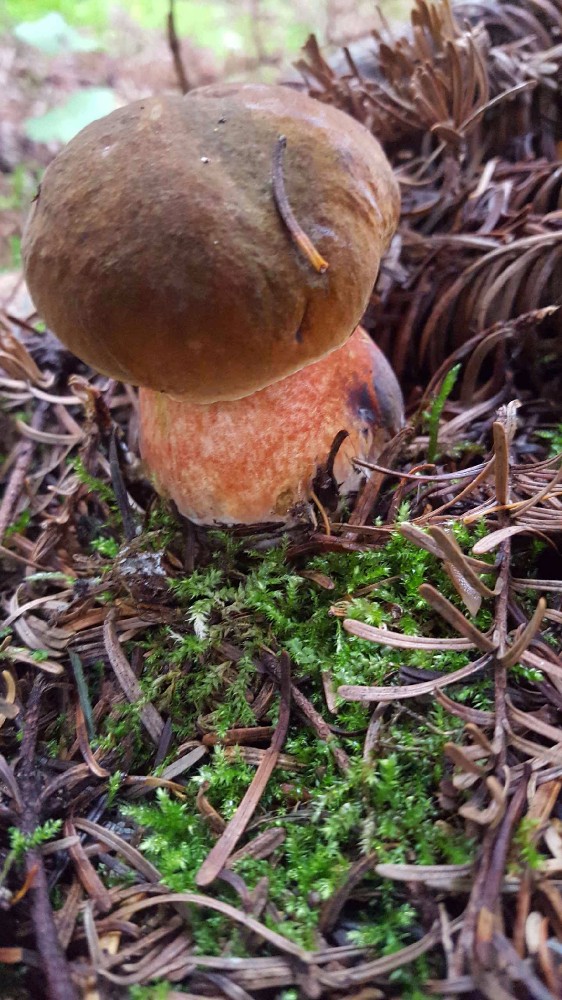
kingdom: Fungi
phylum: Basidiomycota
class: Agaricomycetes
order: Boletales
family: Boletaceae
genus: Neoboletus
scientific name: Neoboletus erythropus
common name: punktstokket indigorørhat
